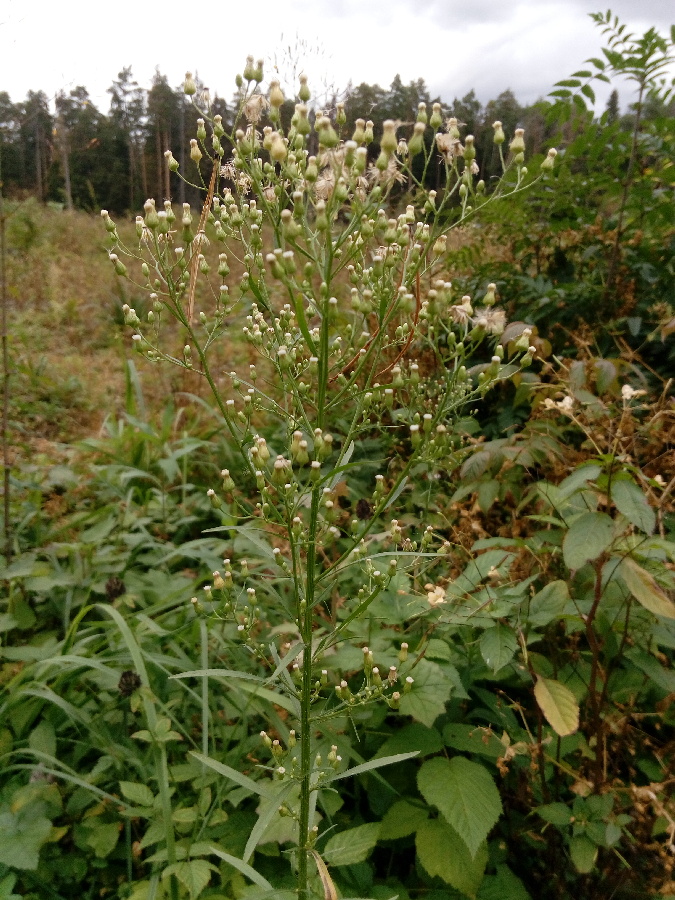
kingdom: Plantae
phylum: Tracheophyta
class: Magnoliopsida
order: Asterales
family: Asteraceae
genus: Erigeron
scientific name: Erigeron canadensis
